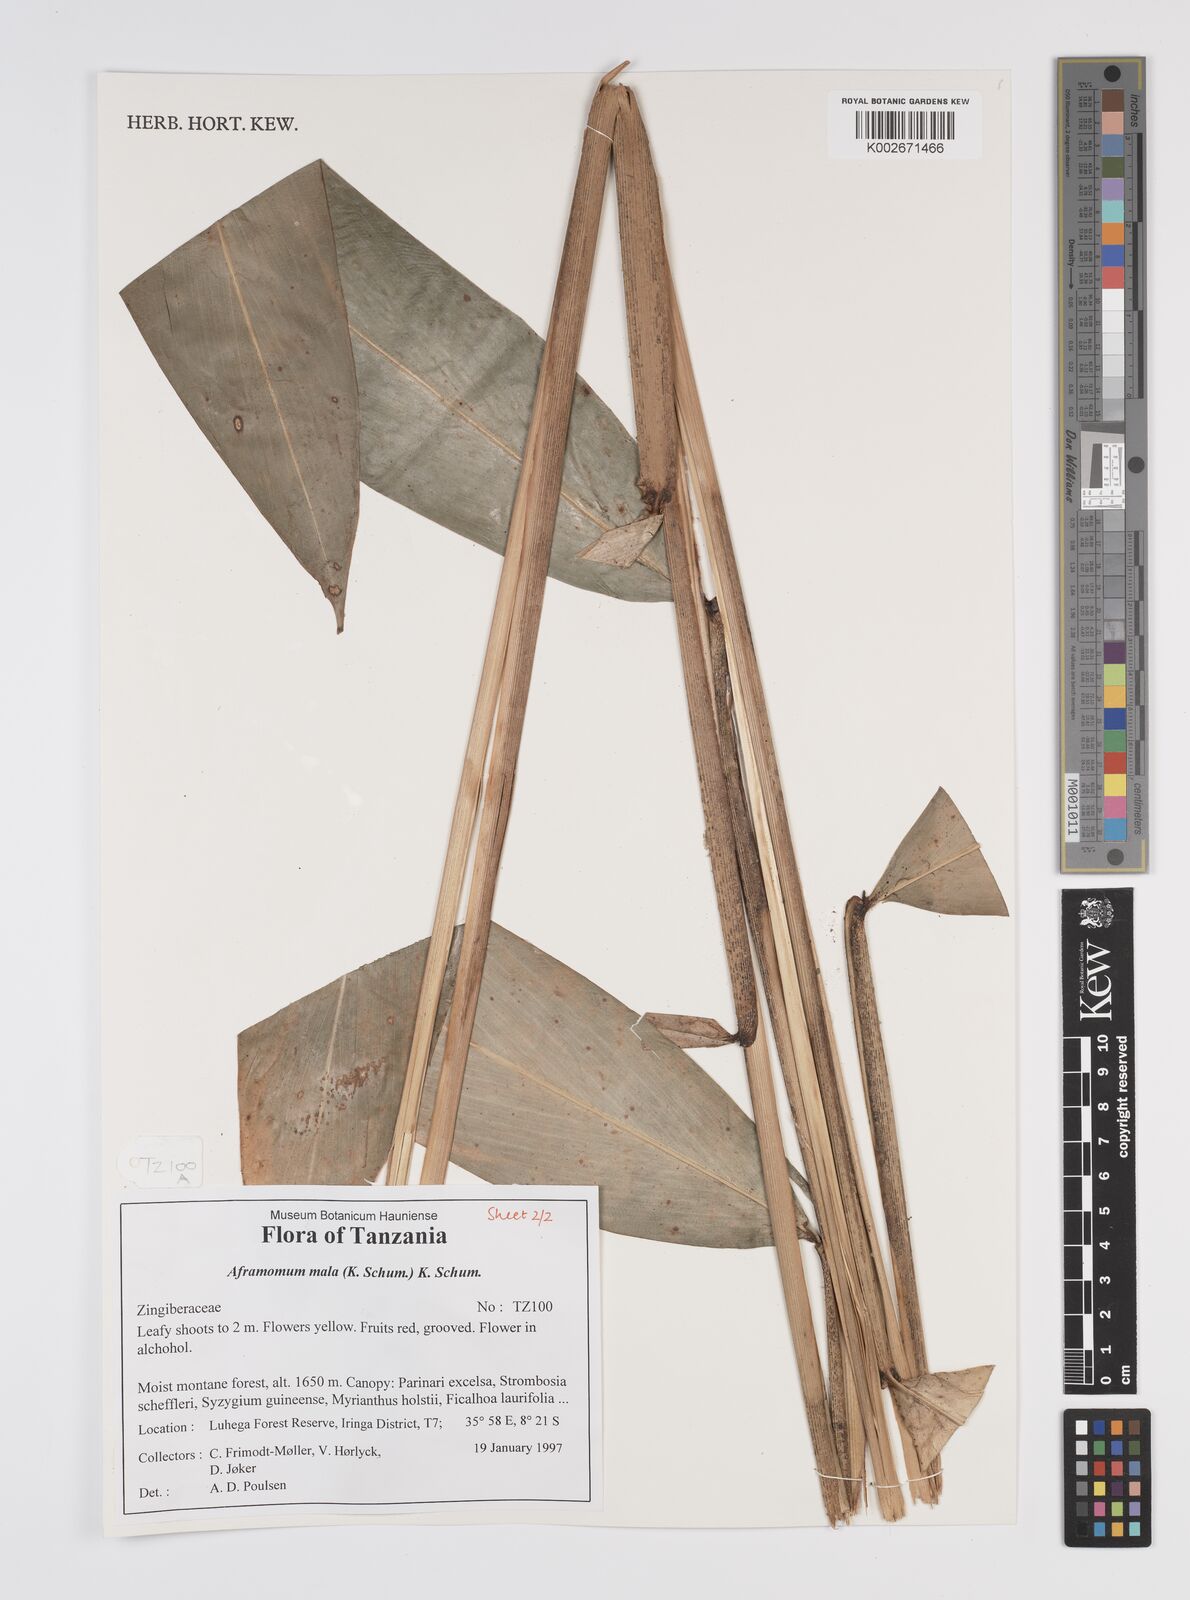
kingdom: Plantae
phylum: Tracheophyta
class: Liliopsida
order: Zingiberales
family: Zingiberaceae
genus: Aframomum
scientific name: Aframomum mala
